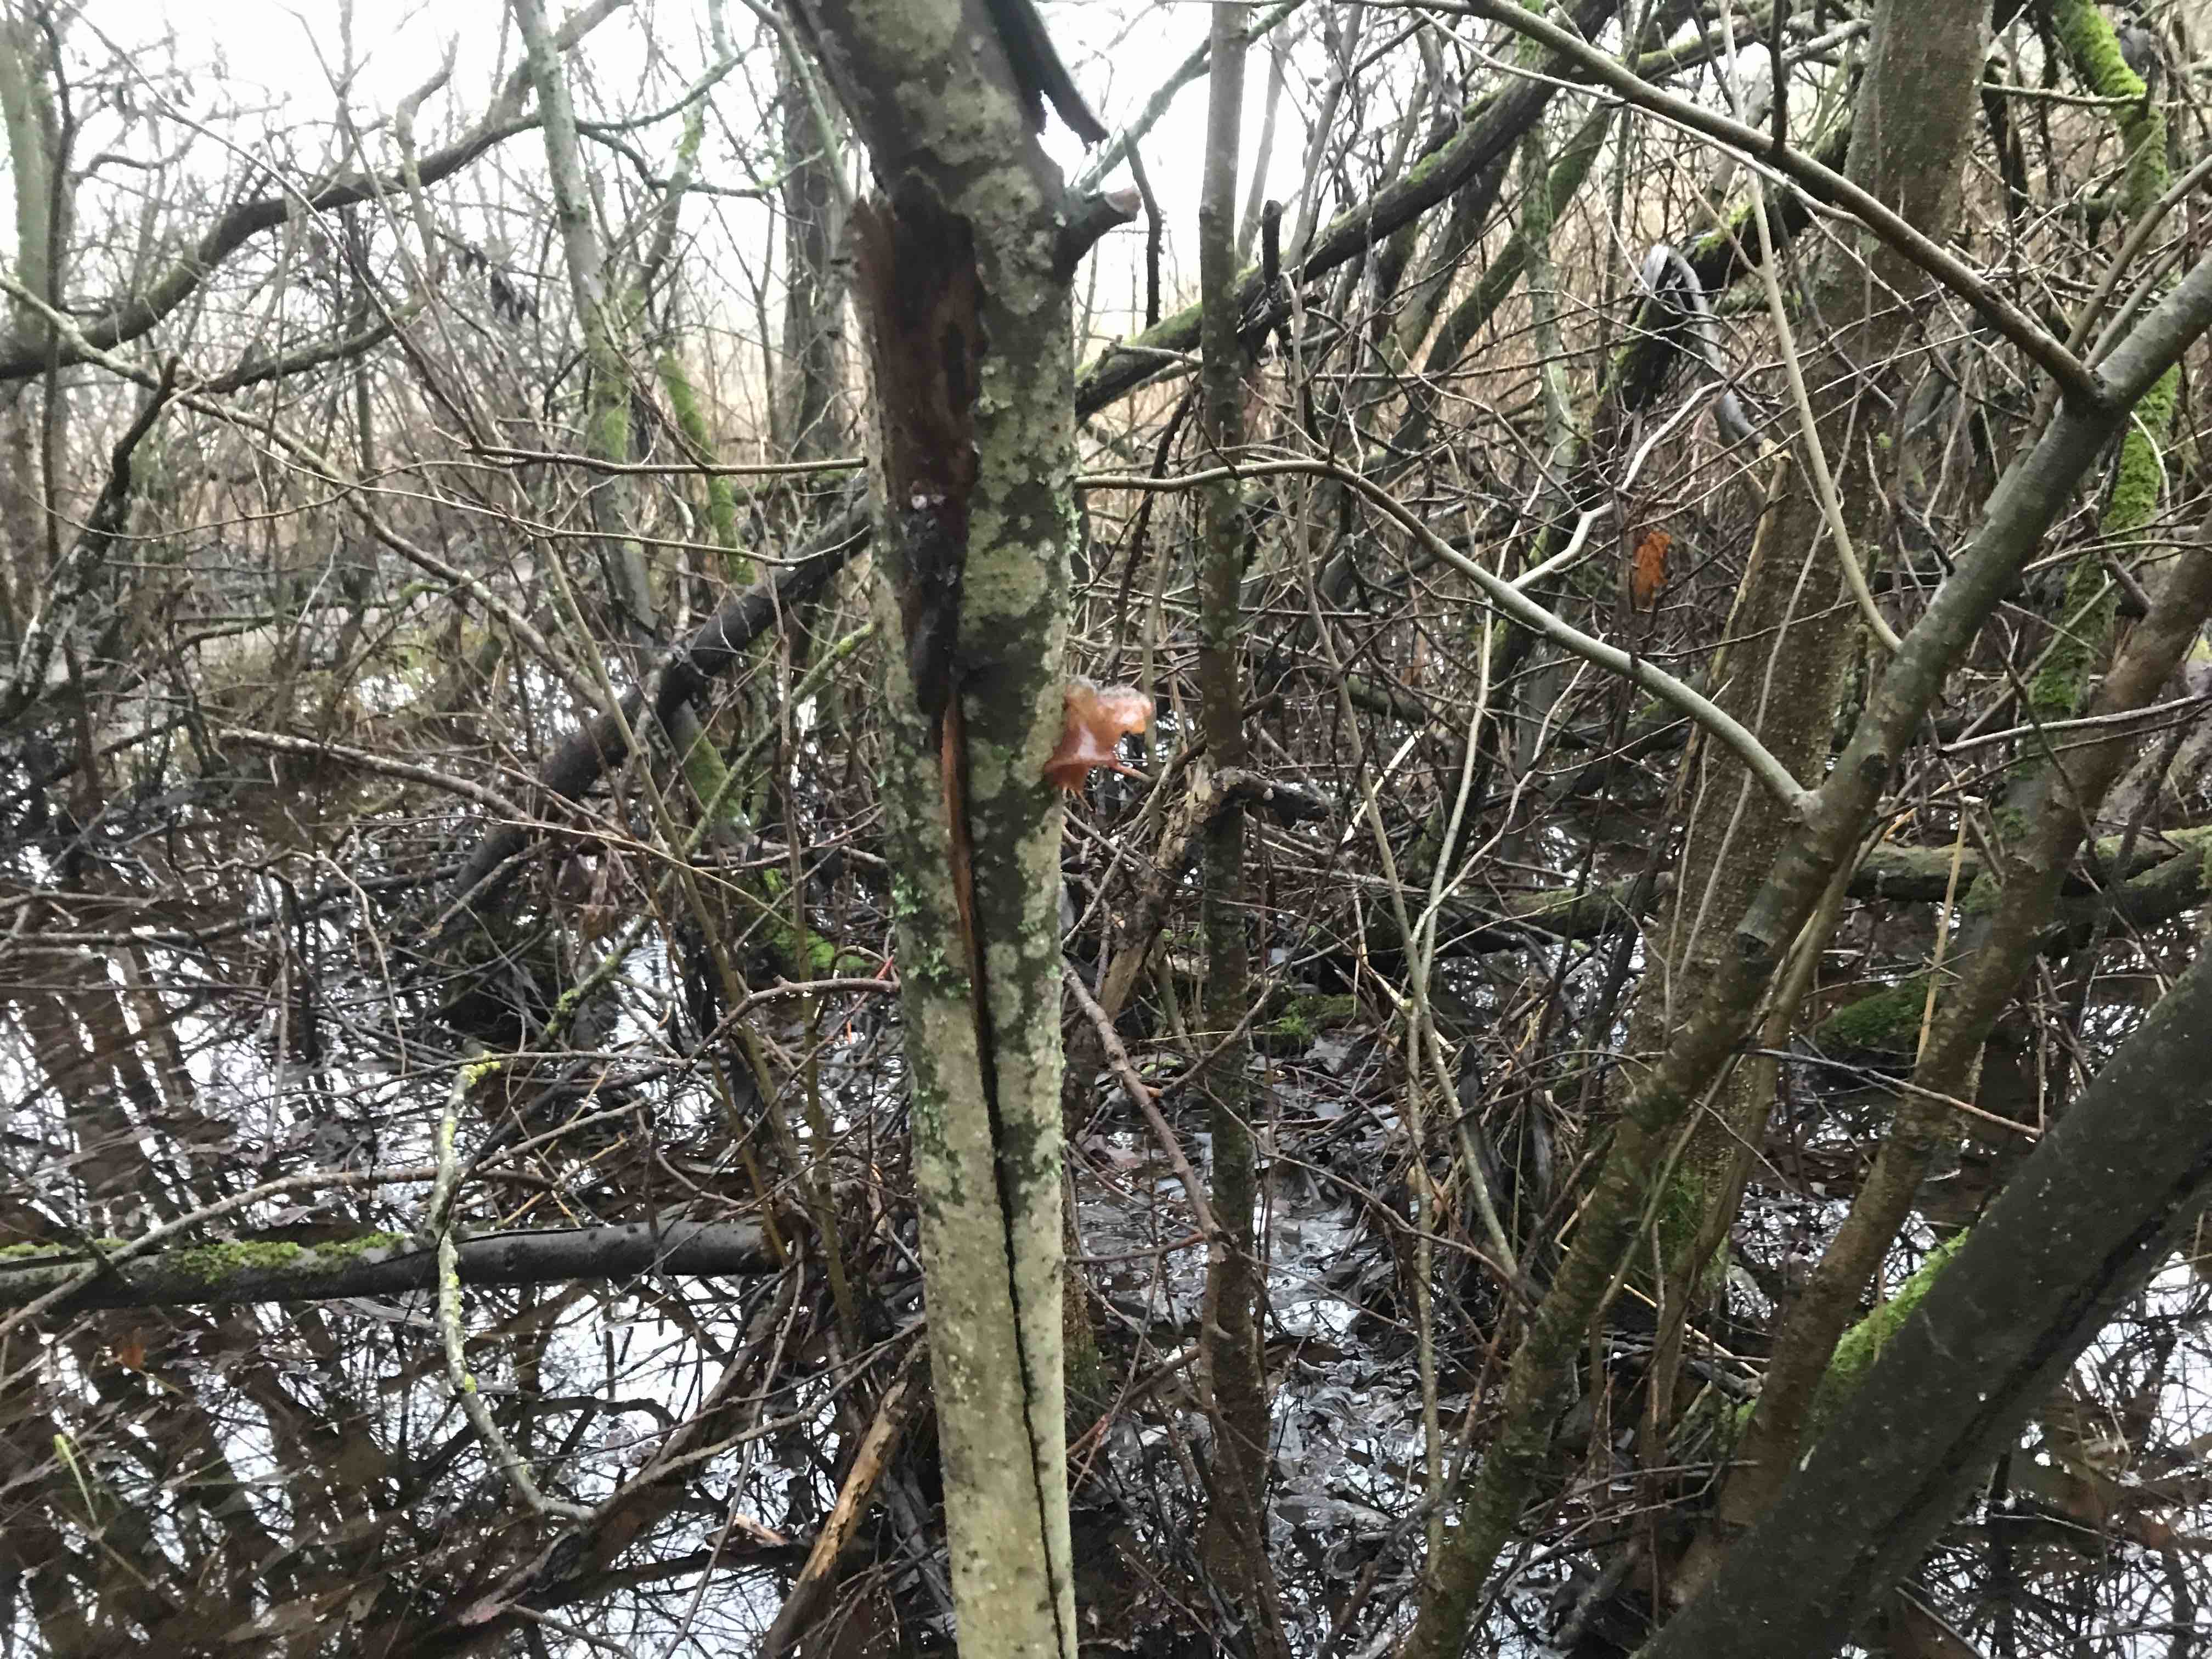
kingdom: Fungi
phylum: Basidiomycota
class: Agaricomycetes
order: Auriculariales
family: Auriculariaceae
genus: Exidia
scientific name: Exidia recisa
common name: pile-bævretop
